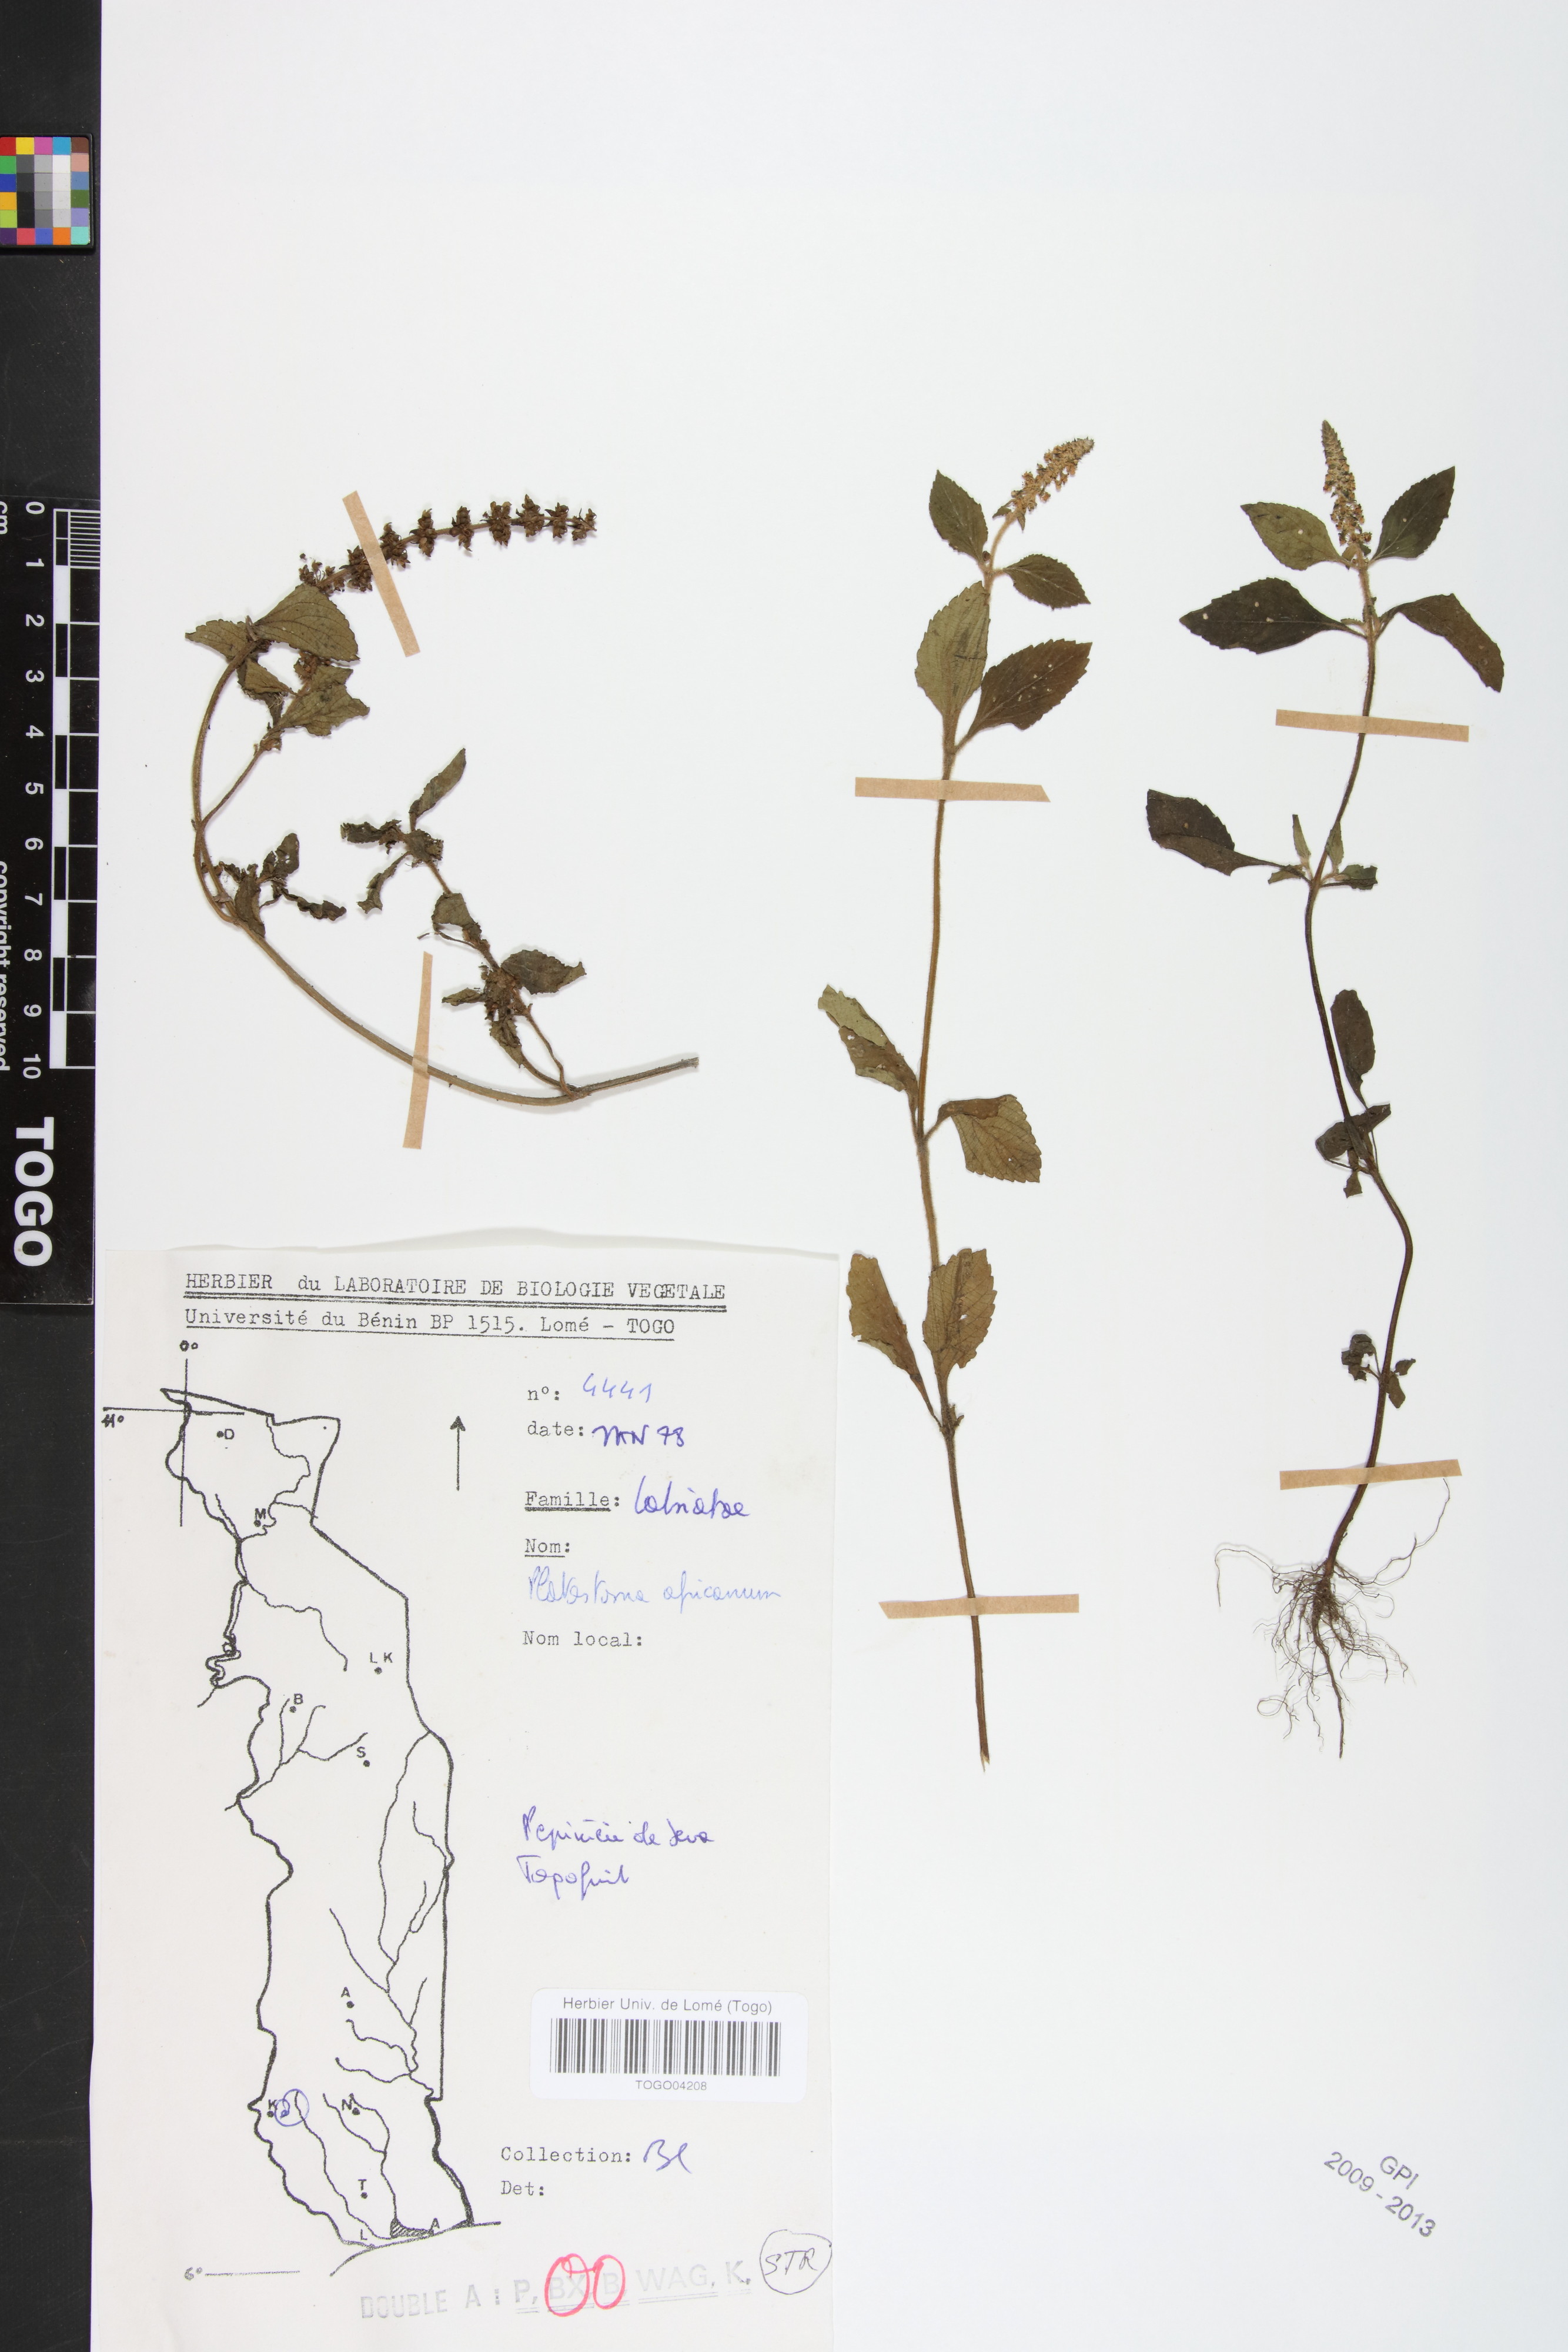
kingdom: Plantae
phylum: Tracheophyta
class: Magnoliopsida
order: Lamiales
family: Lamiaceae
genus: Platostoma
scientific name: Platostoma africanum
